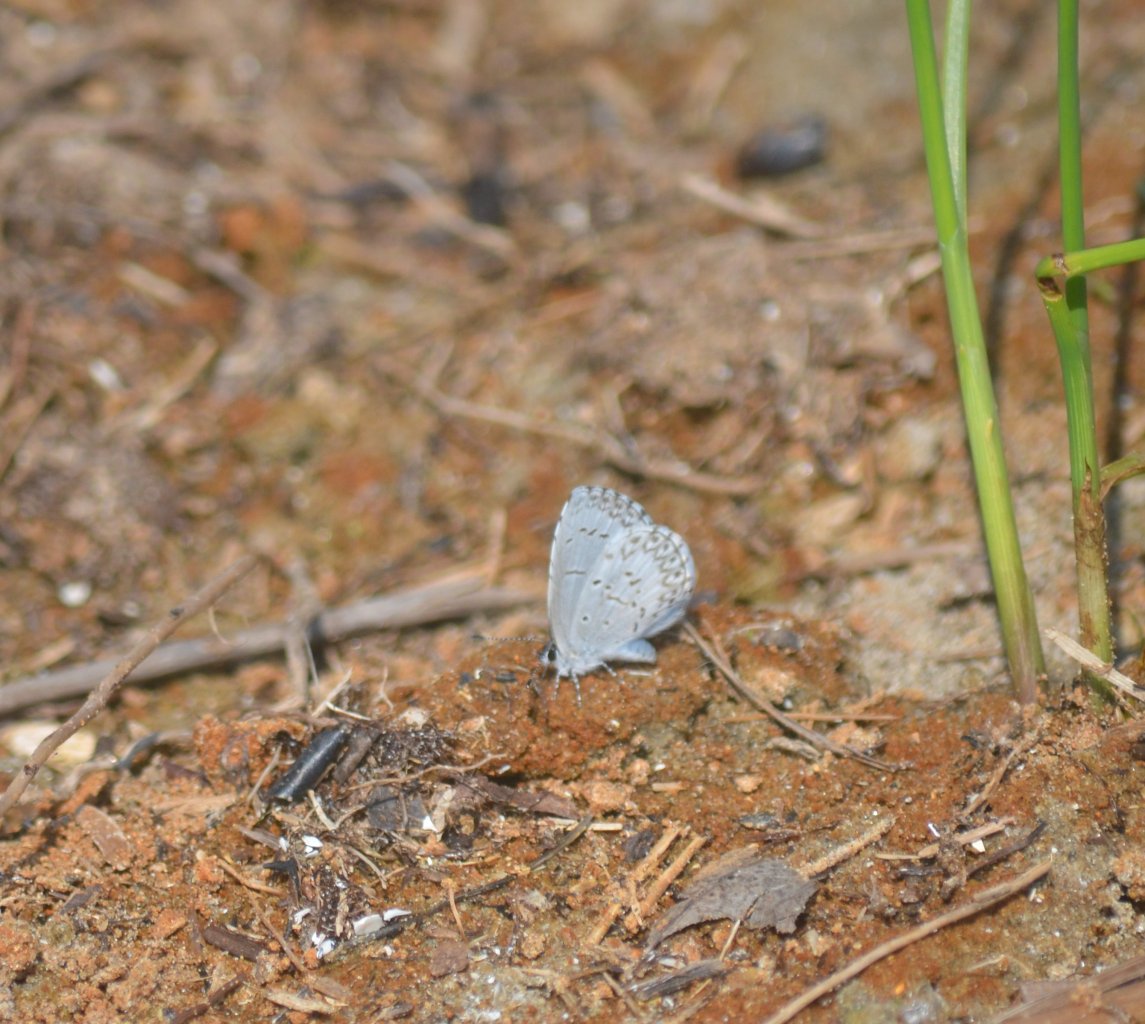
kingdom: Animalia
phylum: Arthropoda
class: Insecta
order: Lepidoptera
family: Lycaenidae
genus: Celastrina
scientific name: Celastrina
